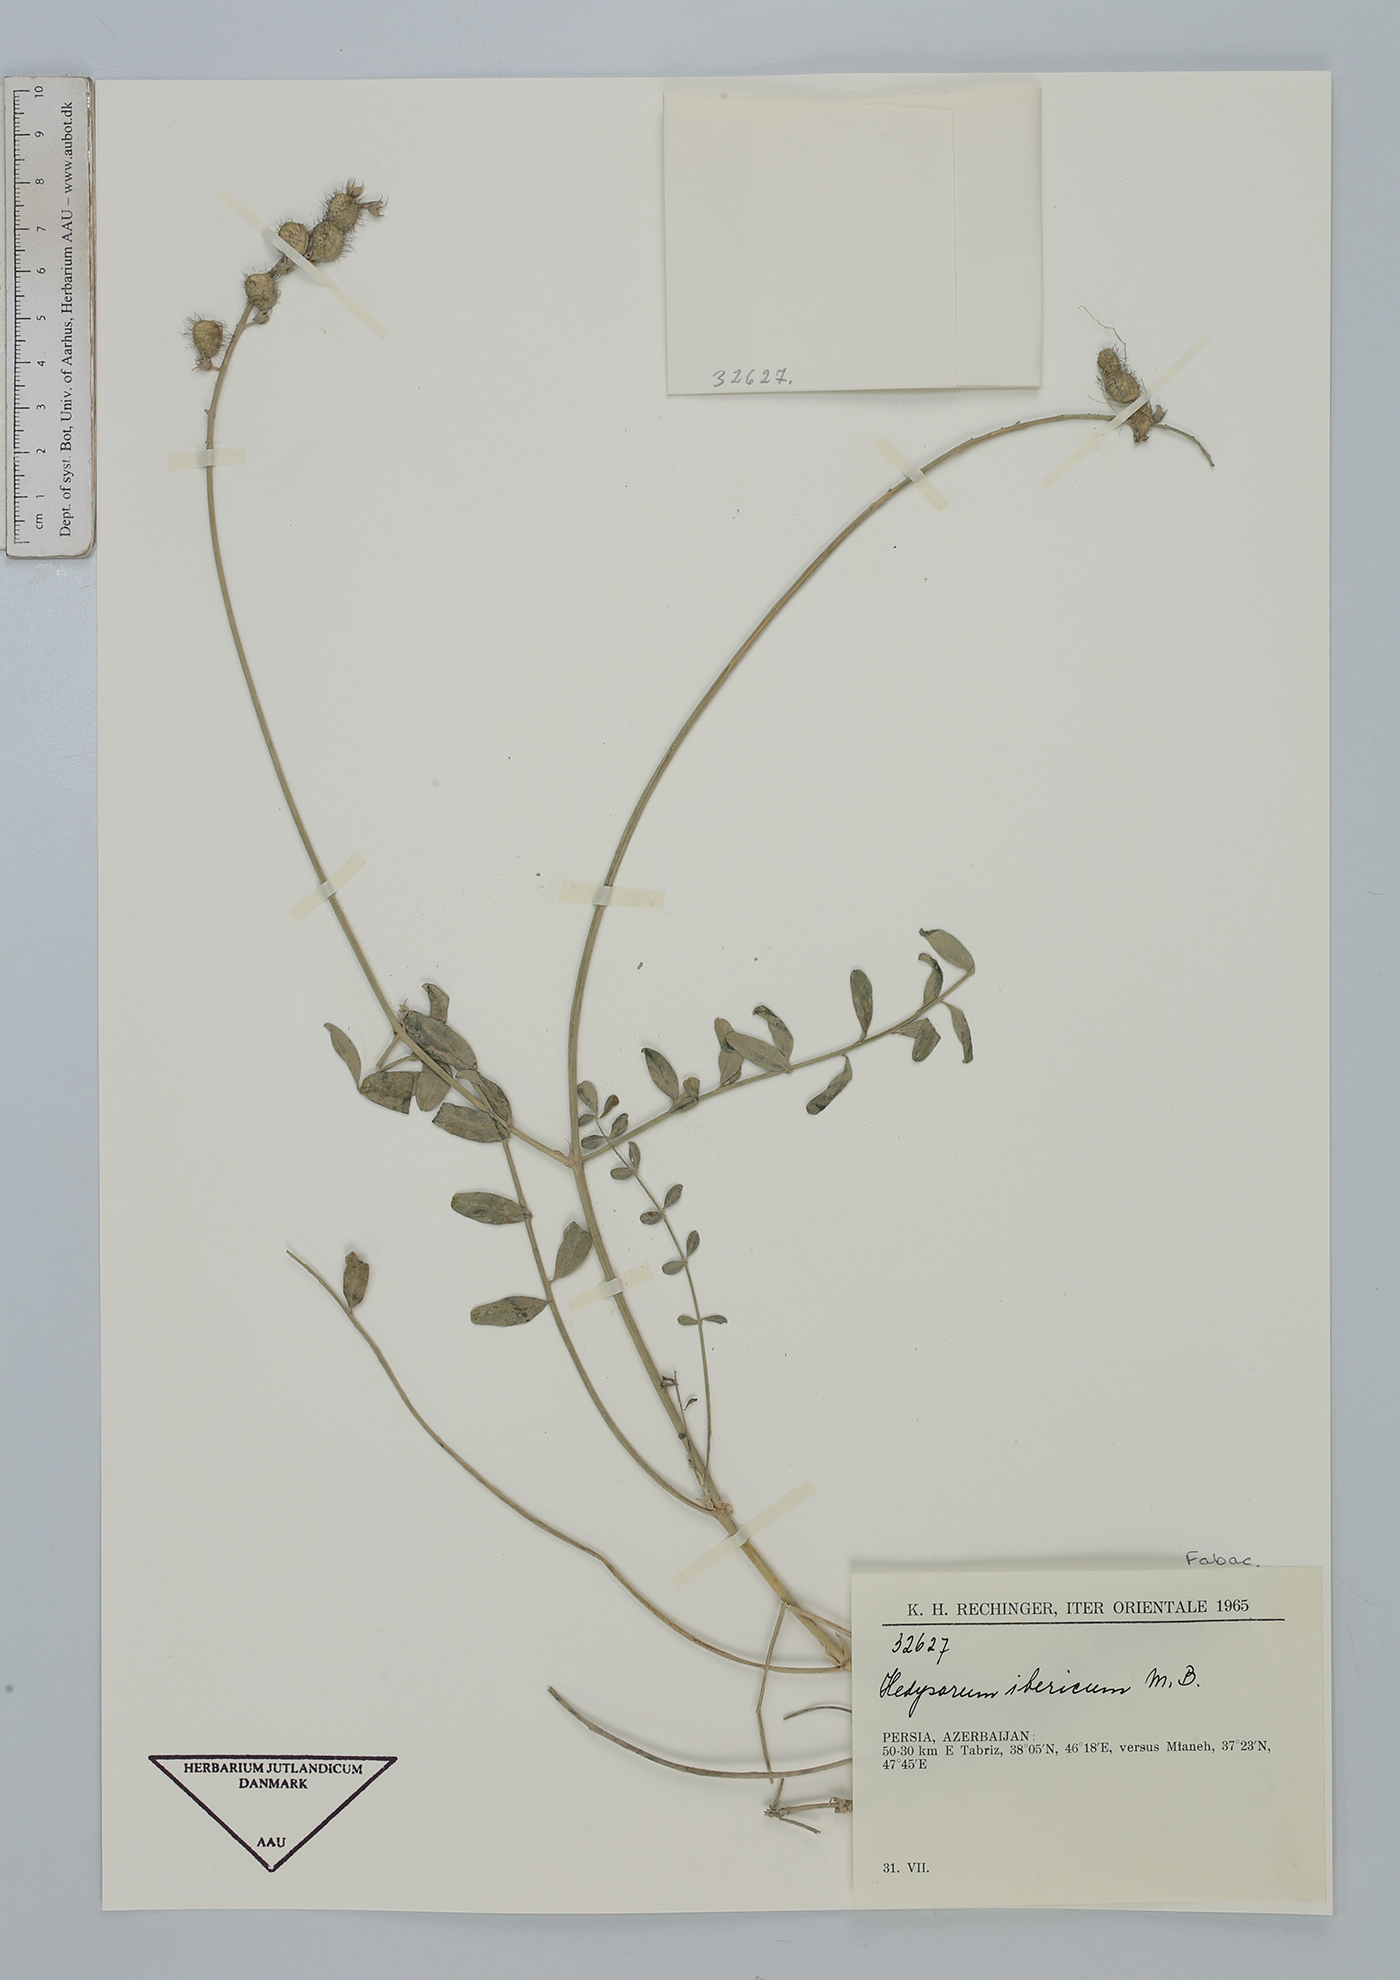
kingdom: Plantae
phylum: Tracheophyta
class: Magnoliopsida
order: Fabales
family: Fabaceae
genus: Hedysarum
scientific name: Hedysarum ibericum
